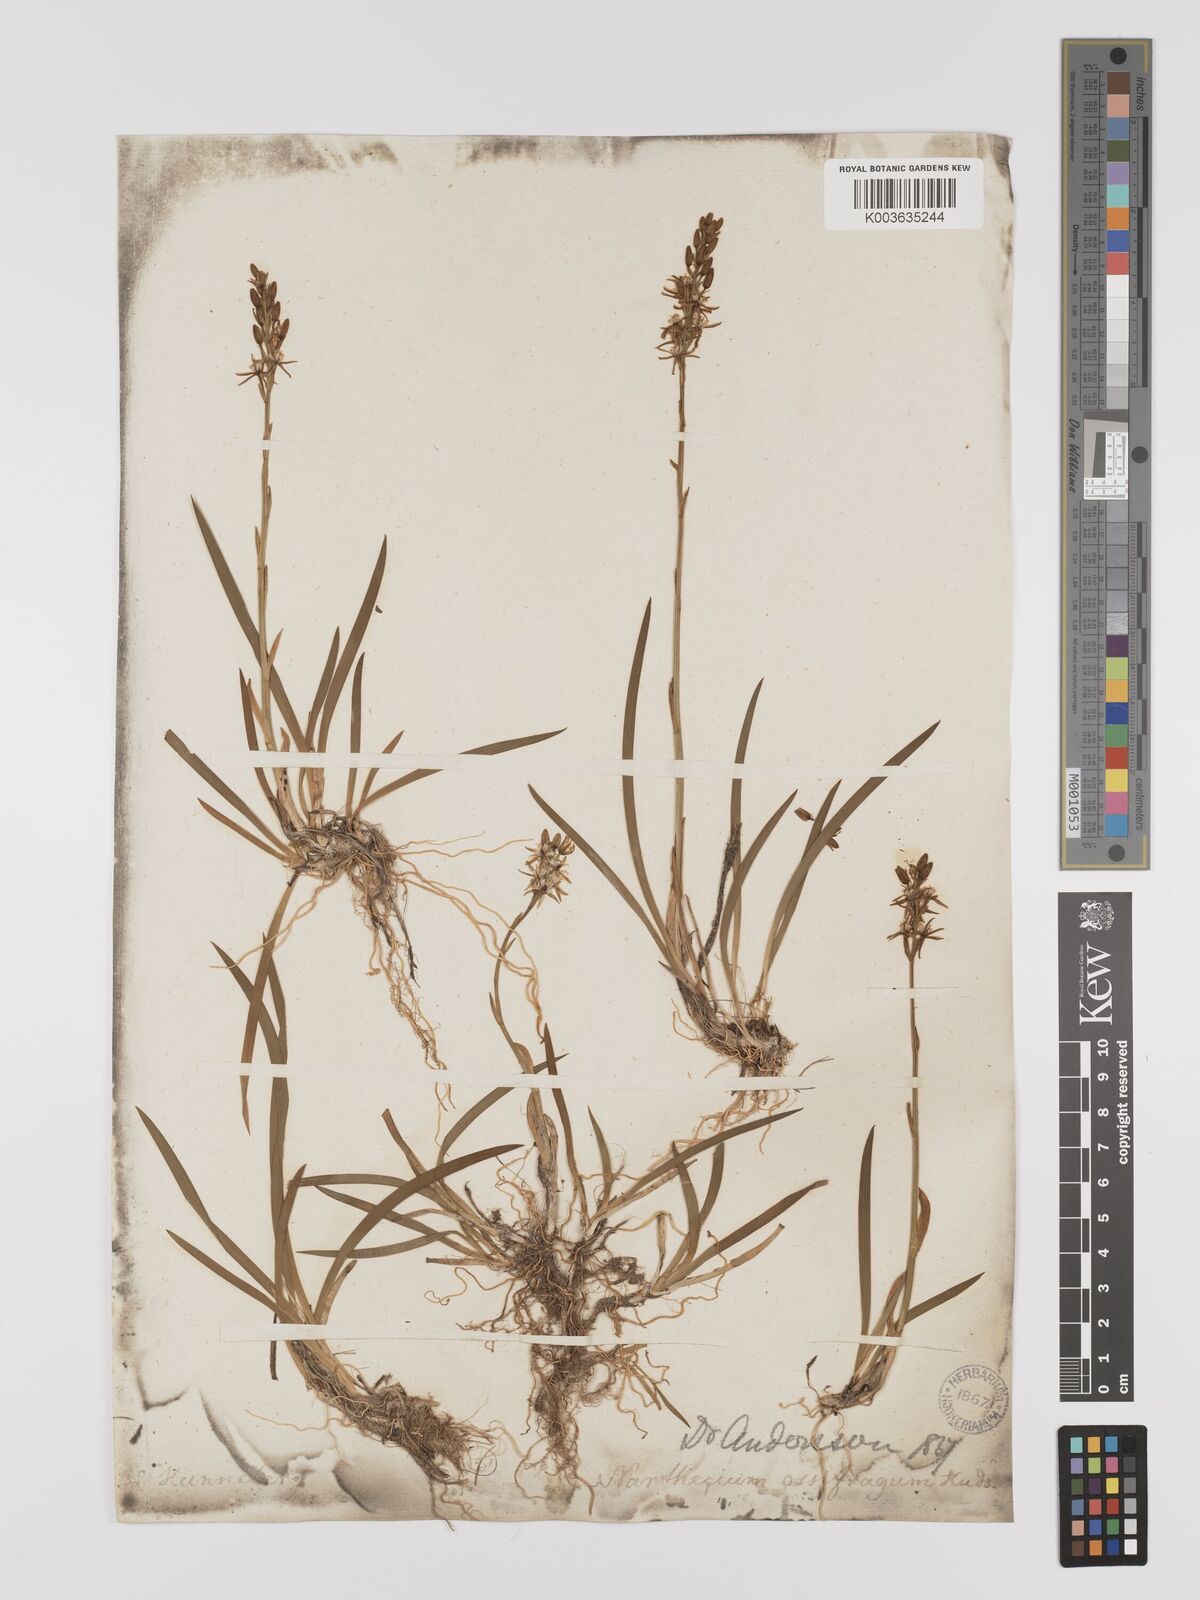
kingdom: Plantae
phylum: Tracheophyta
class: Liliopsida
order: Dioscoreales
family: Nartheciaceae
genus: Narthecium
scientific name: Narthecium
